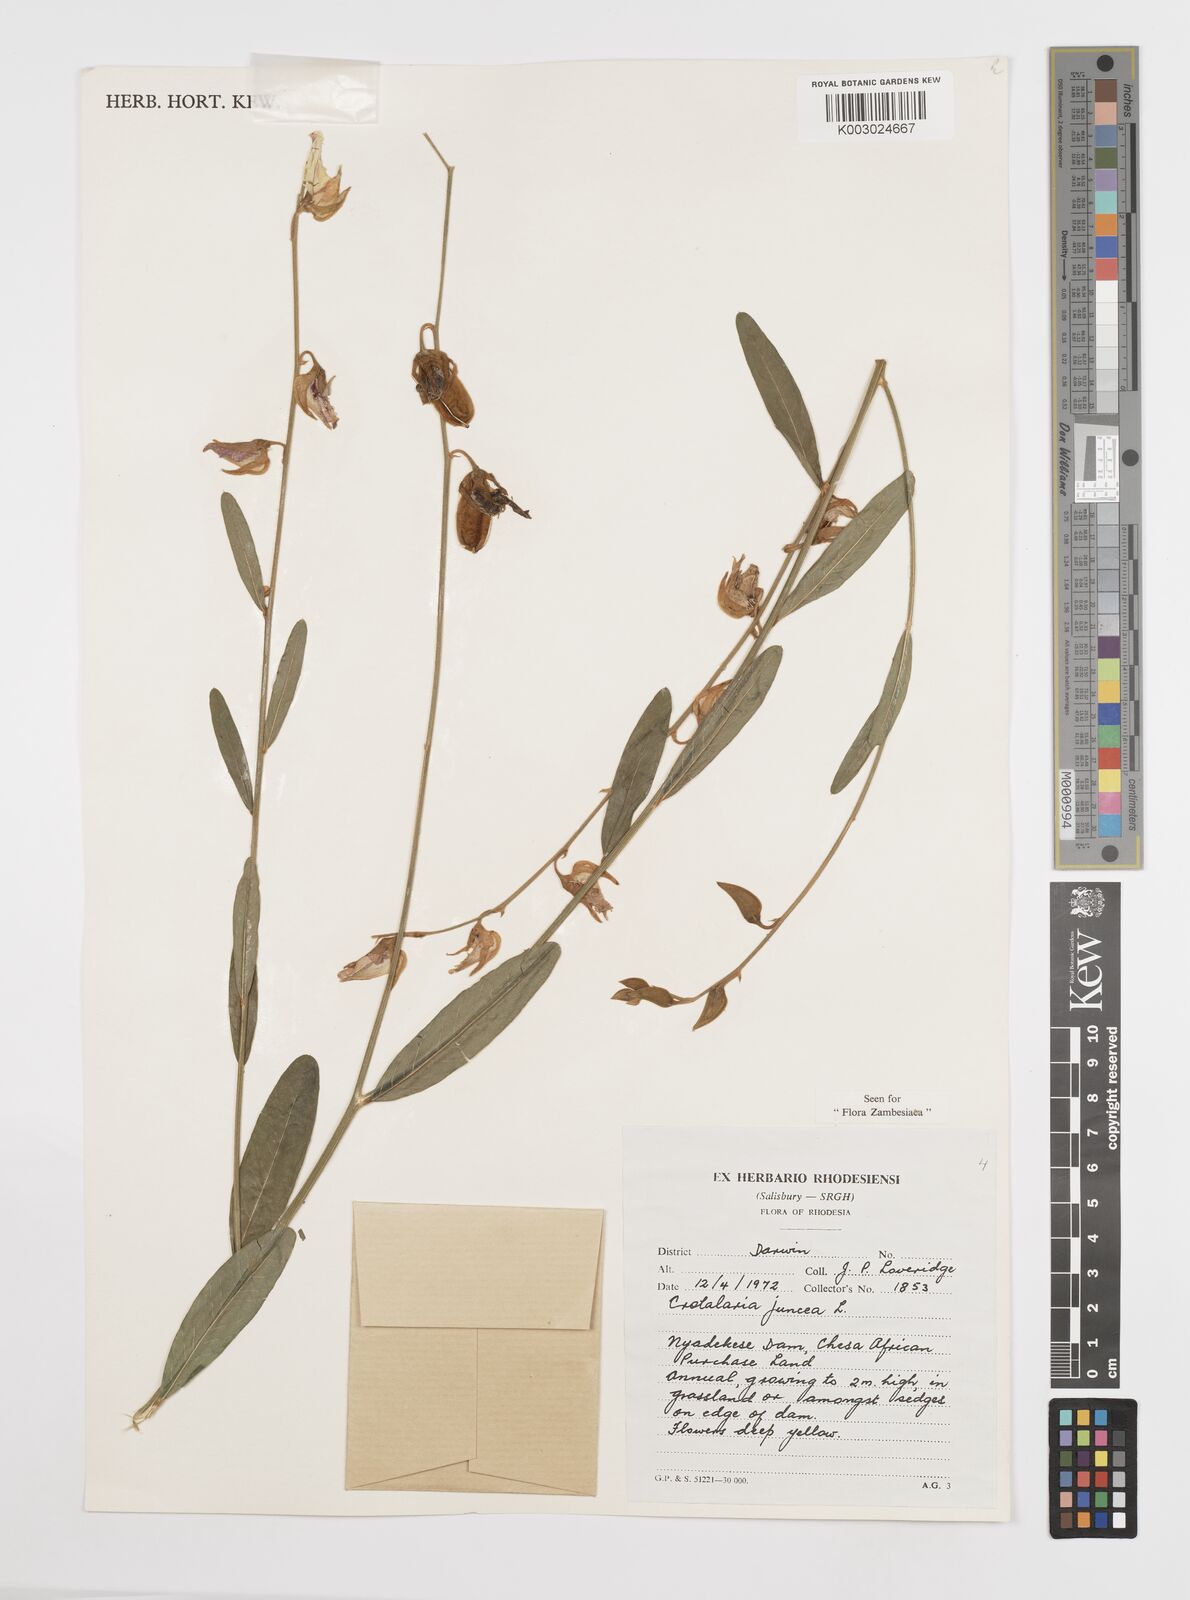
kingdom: Plantae
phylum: Tracheophyta
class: Magnoliopsida
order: Fabales
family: Fabaceae
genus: Crotalaria
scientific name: Crotalaria juncea
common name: Sunn hemp
